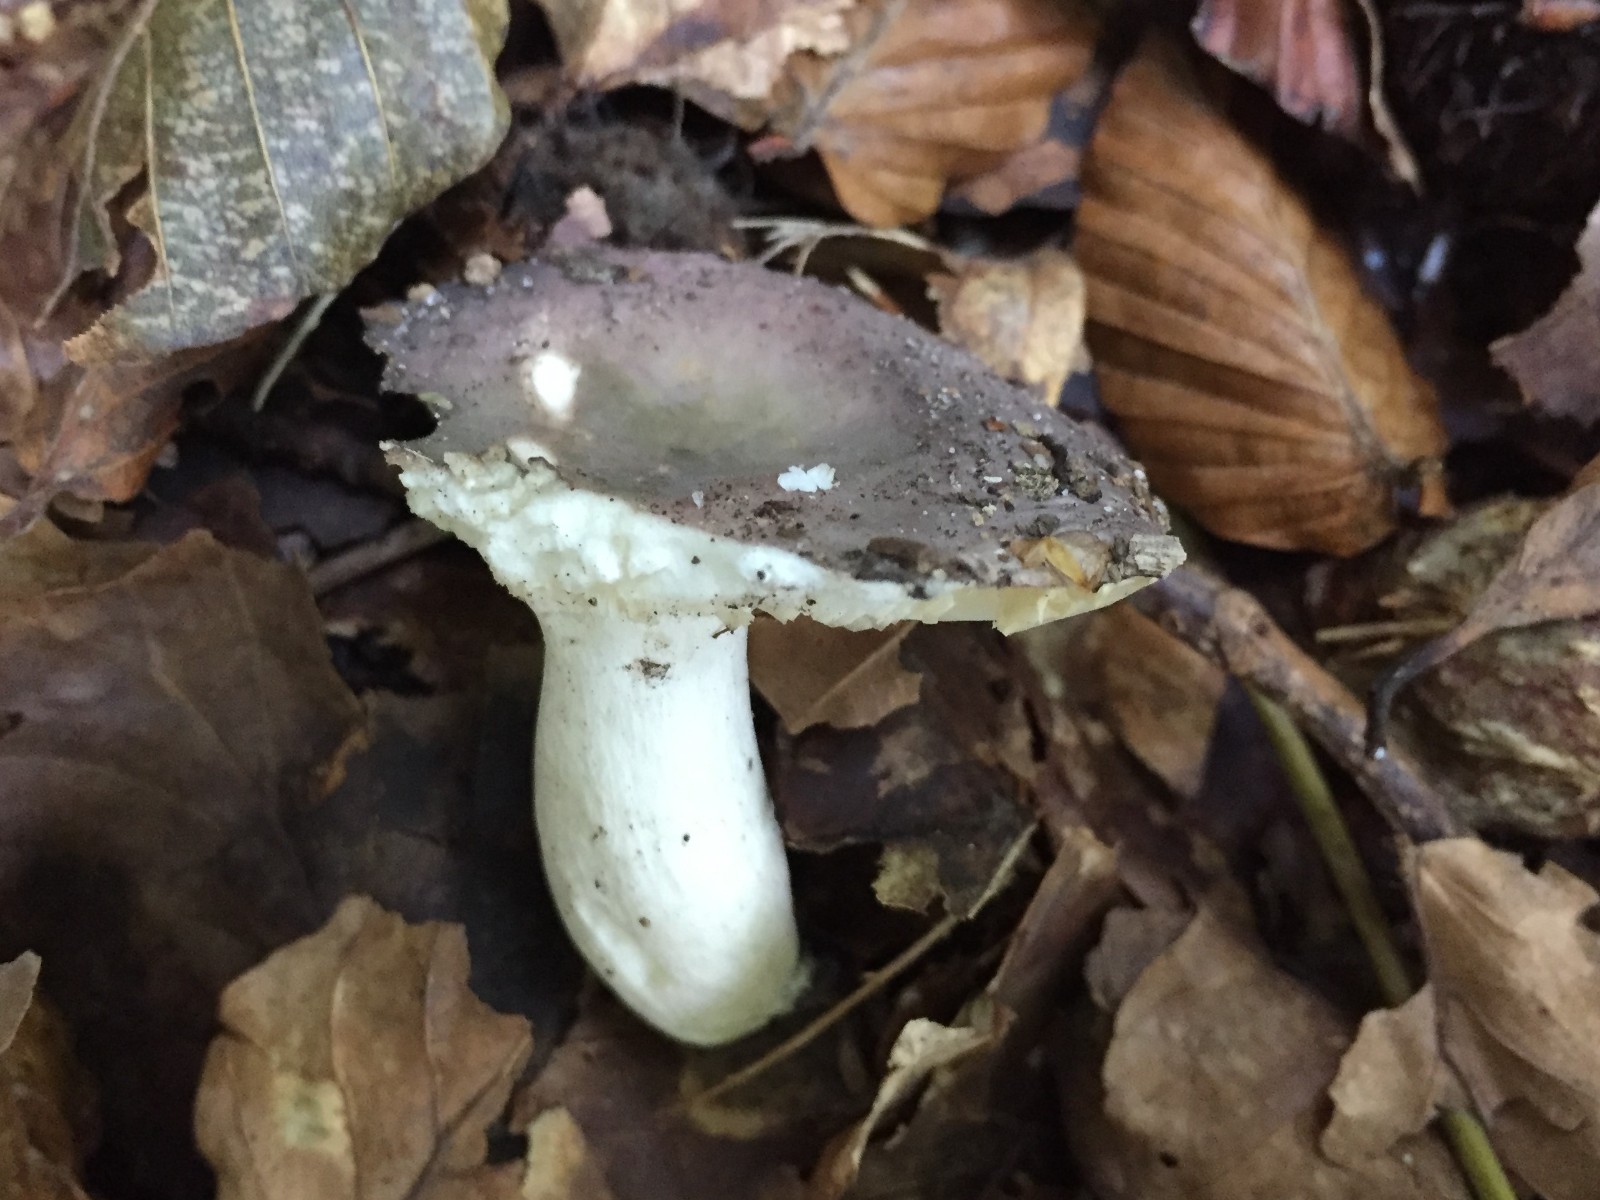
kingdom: Fungi
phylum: Basidiomycota
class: Agaricomycetes
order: Russulales
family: Russulaceae
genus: Russula
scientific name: Russula ionochlora
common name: violetgrøn skørhat
